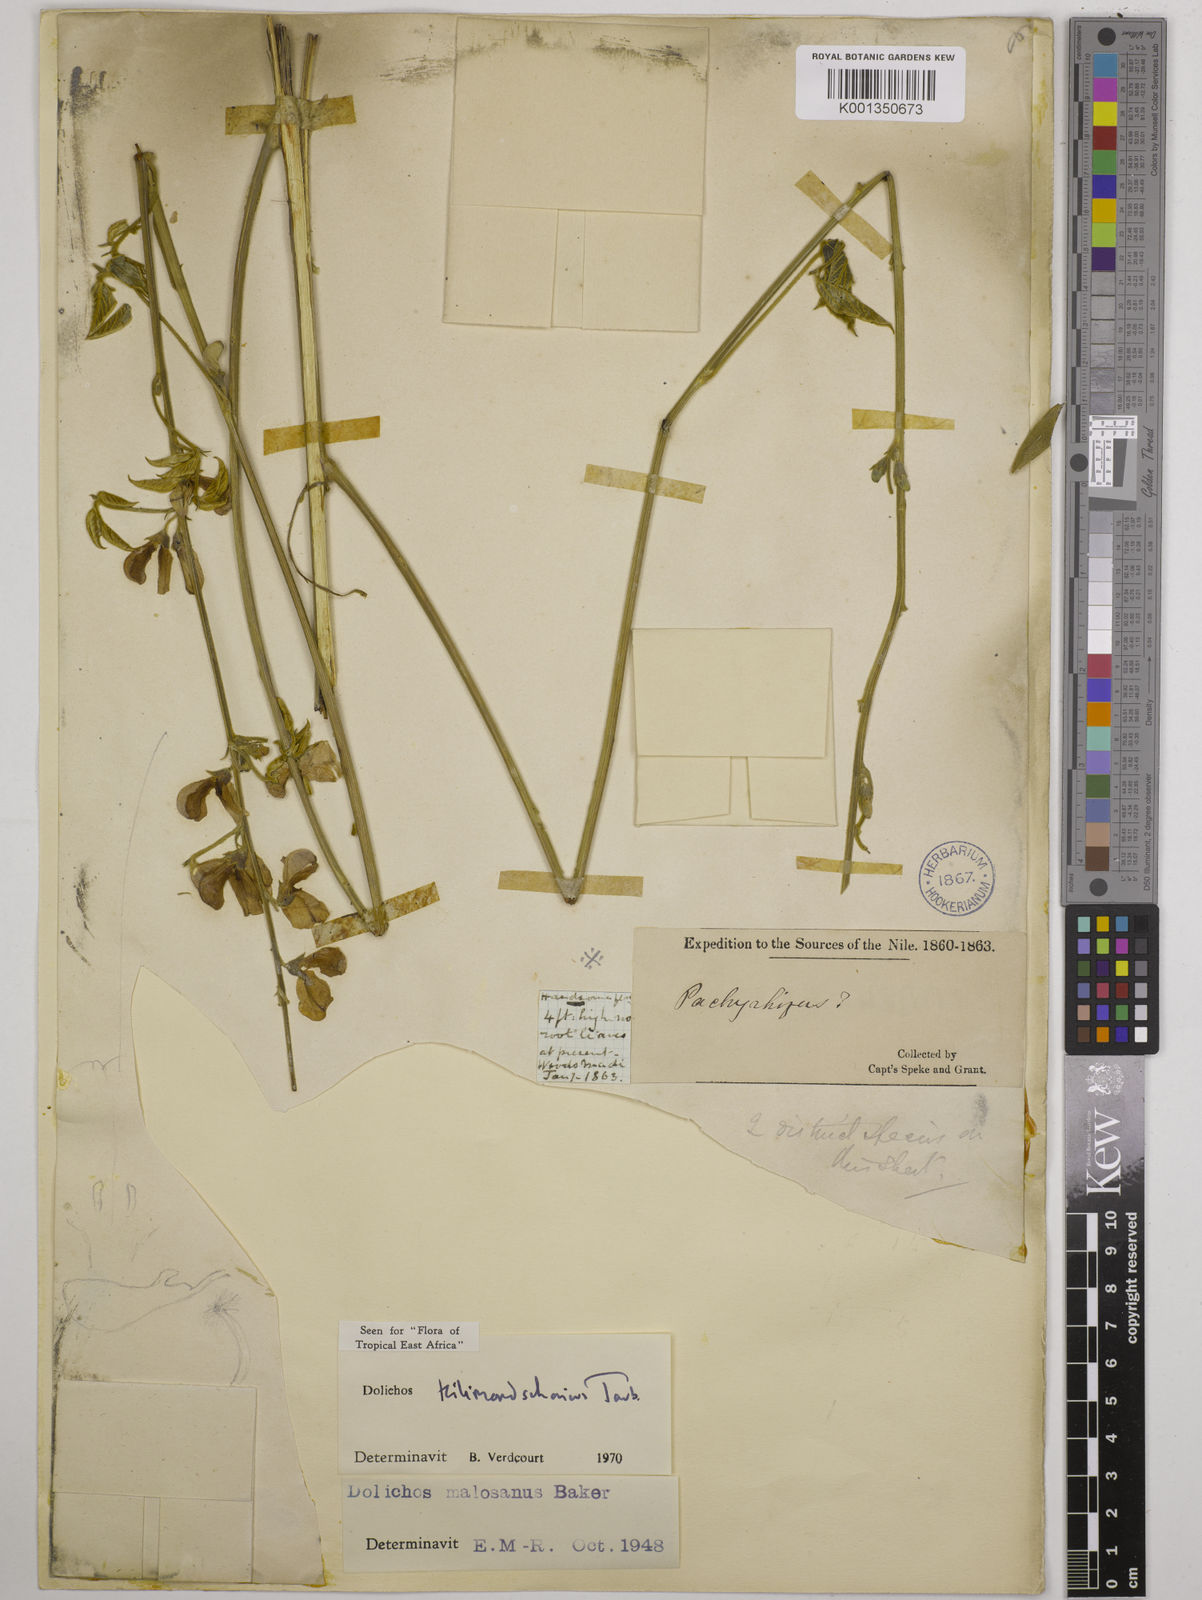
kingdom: Plantae
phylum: Tracheophyta
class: Magnoliopsida
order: Fabales
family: Fabaceae
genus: Dolichos
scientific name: Dolichos kilimandscharicus
